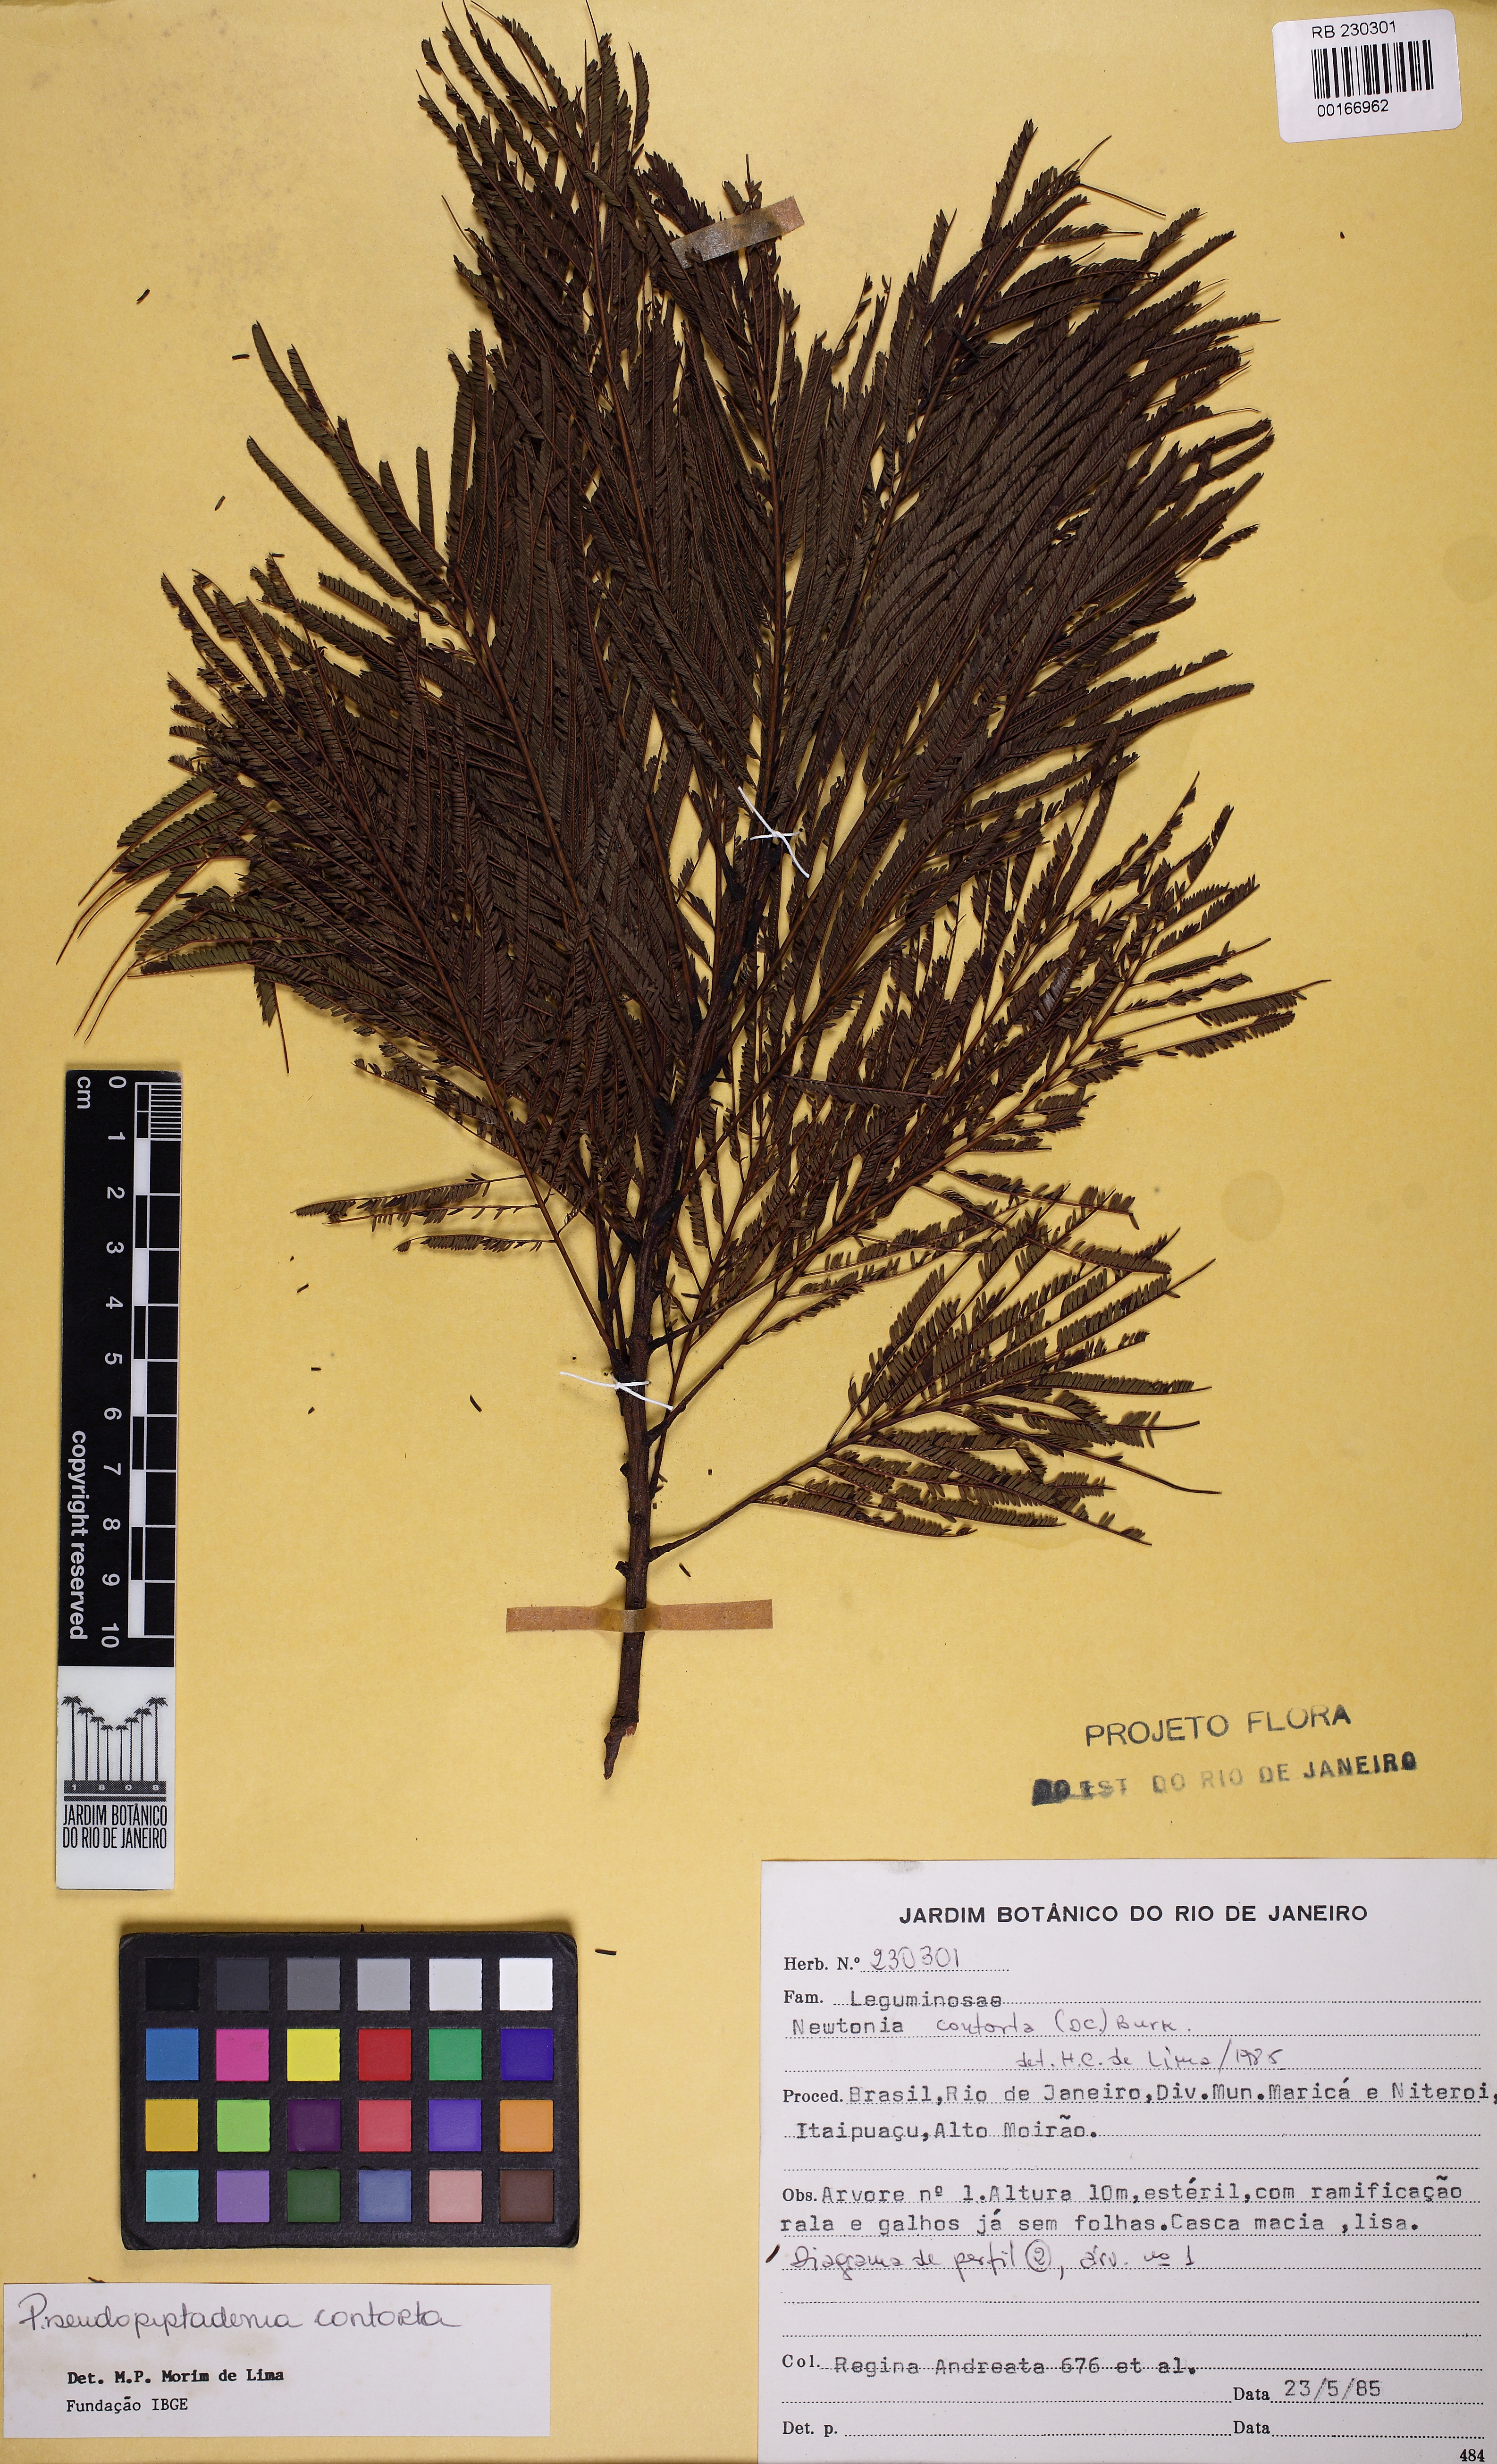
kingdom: Plantae
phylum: Tracheophyta
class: Magnoliopsida
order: Fabales
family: Fabaceae
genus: Pseudopiptadenia
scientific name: Pseudopiptadenia contorta
